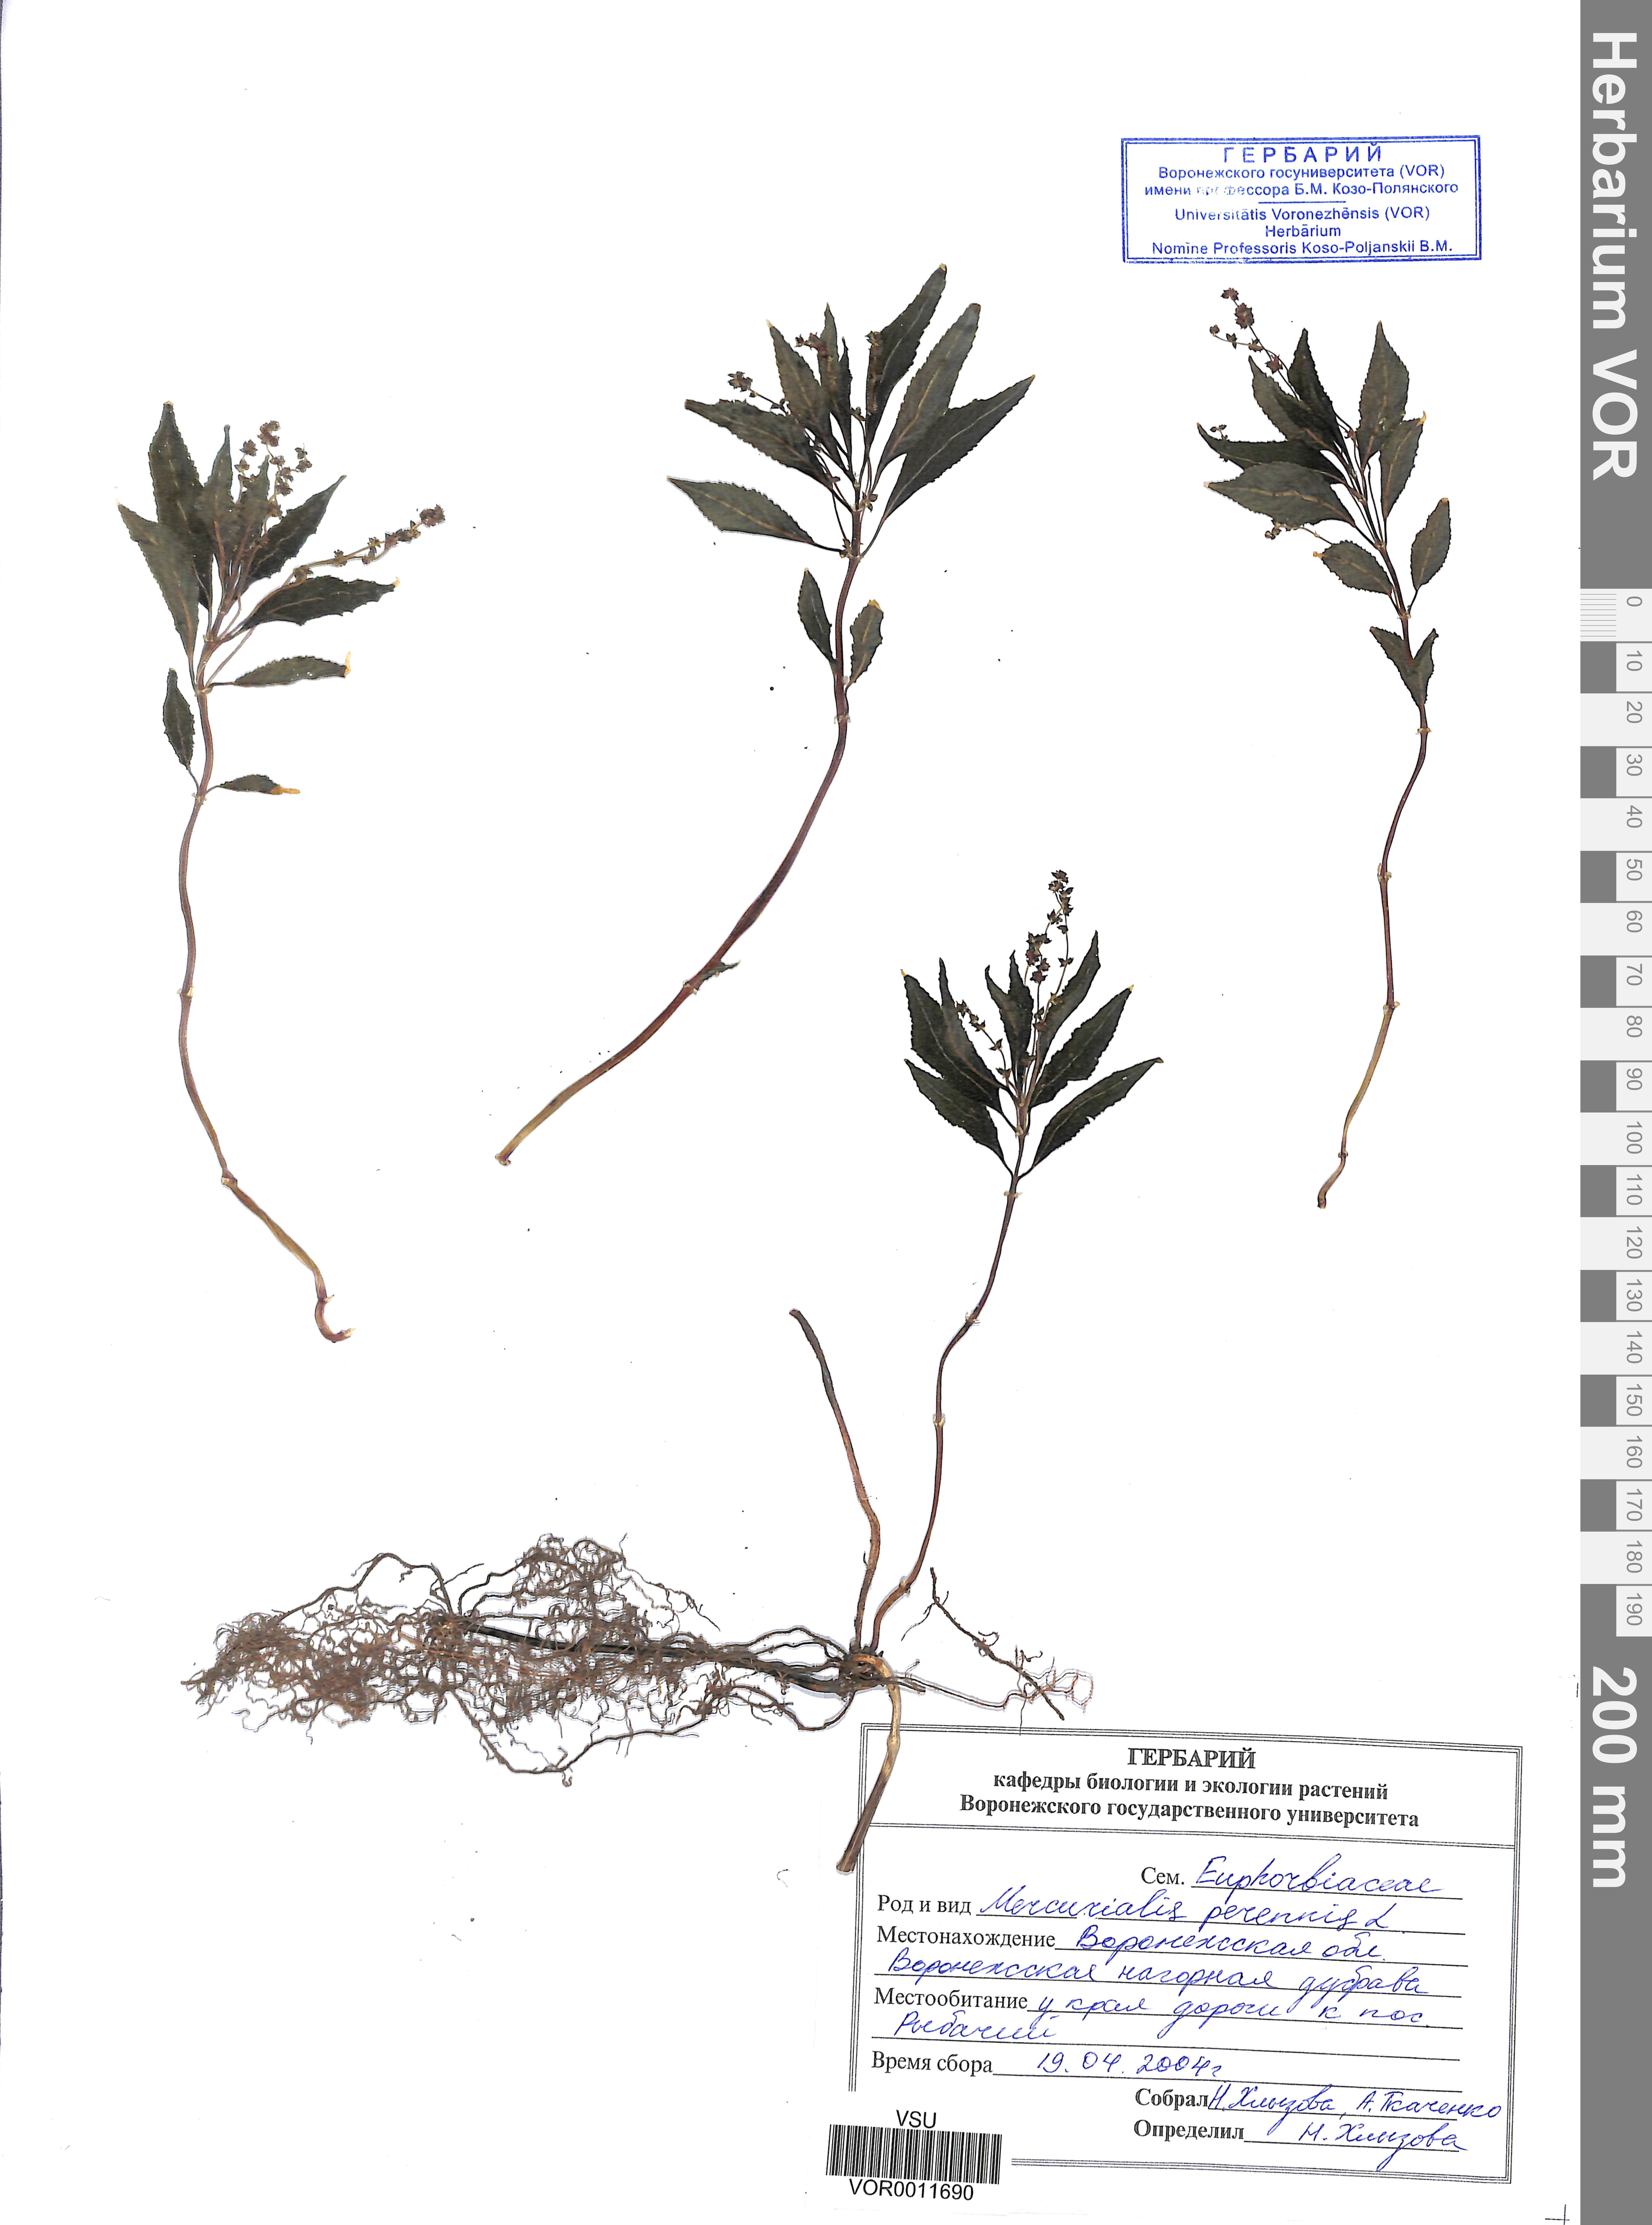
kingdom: Plantae
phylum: Tracheophyta
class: Magnoliopsida
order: Malpighiales
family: Euphorbiaceae
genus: Mercurialis
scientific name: Mercurialis perennis
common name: Dog mercury
